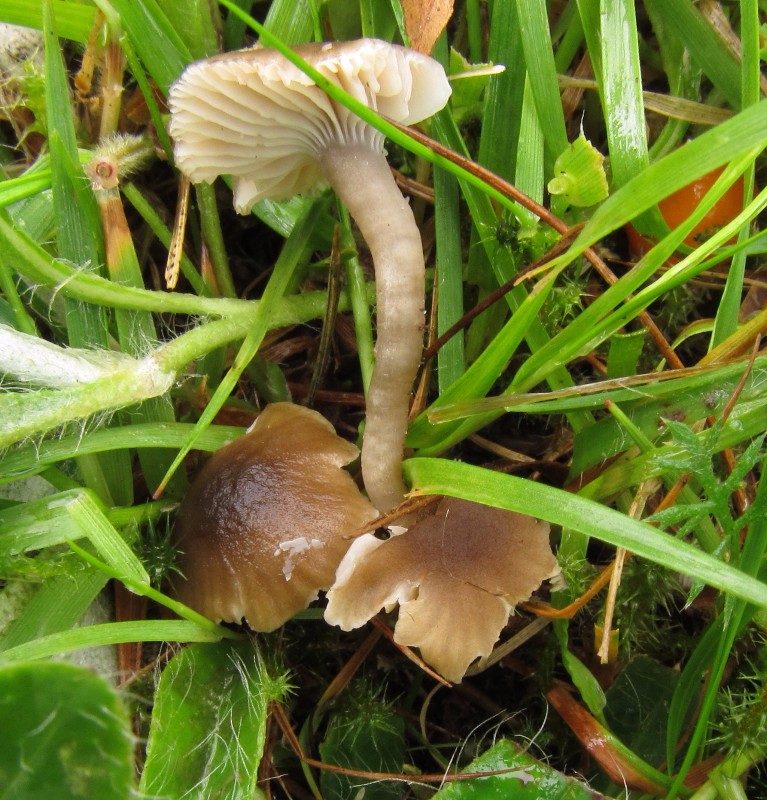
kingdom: Fungi
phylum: Basidiomycota
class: Agaricomycetes
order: Agaricales
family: Clavariaceae
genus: Camarophyllopsis
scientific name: Camarophyllopsis atrovelutina
